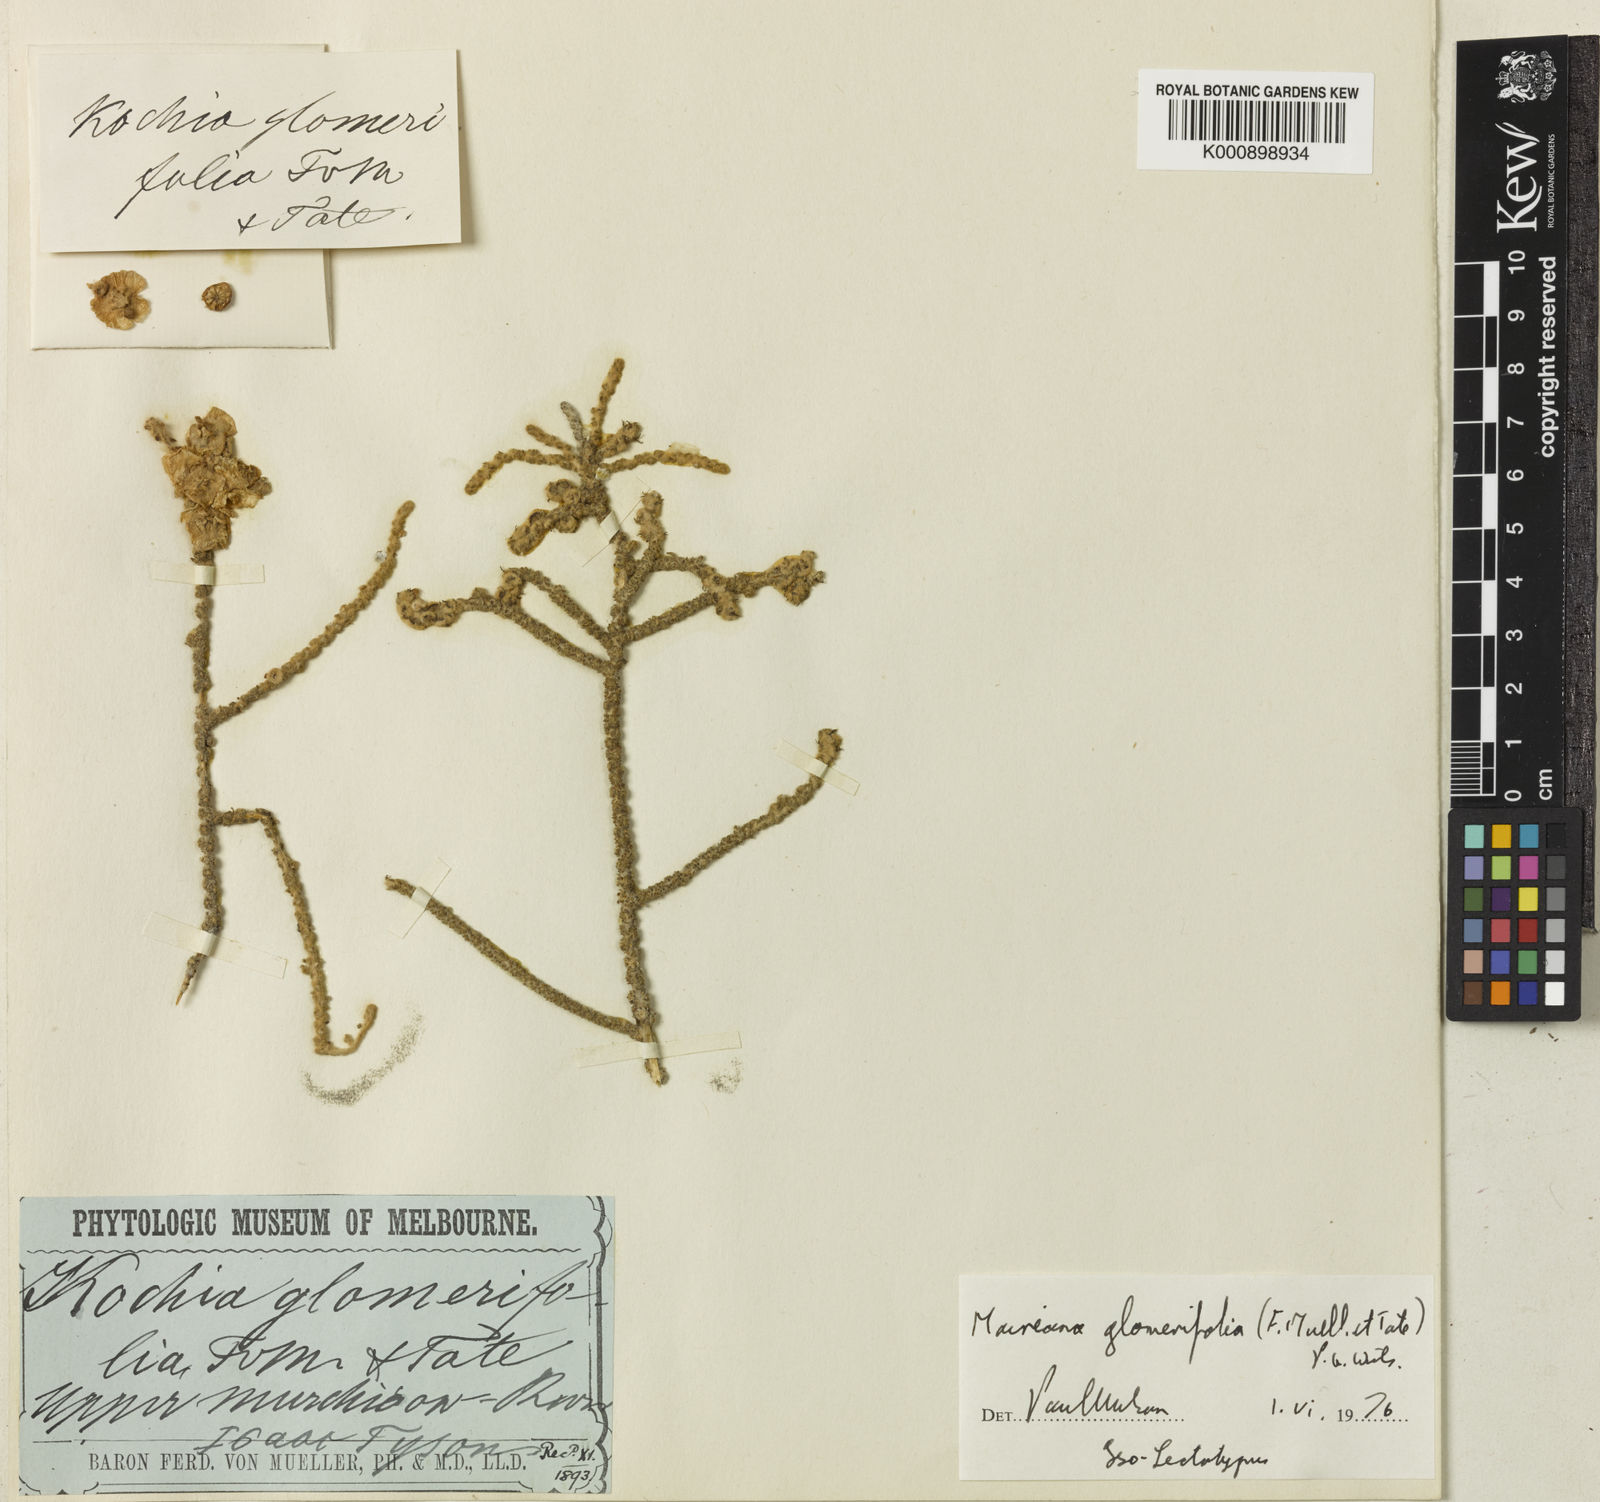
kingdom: Plantae
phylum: Tracheophyta
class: Magnoliopsida
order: Caryophyllales
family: Amaranthaceae
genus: Maireana
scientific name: Maireana glomerifolia
